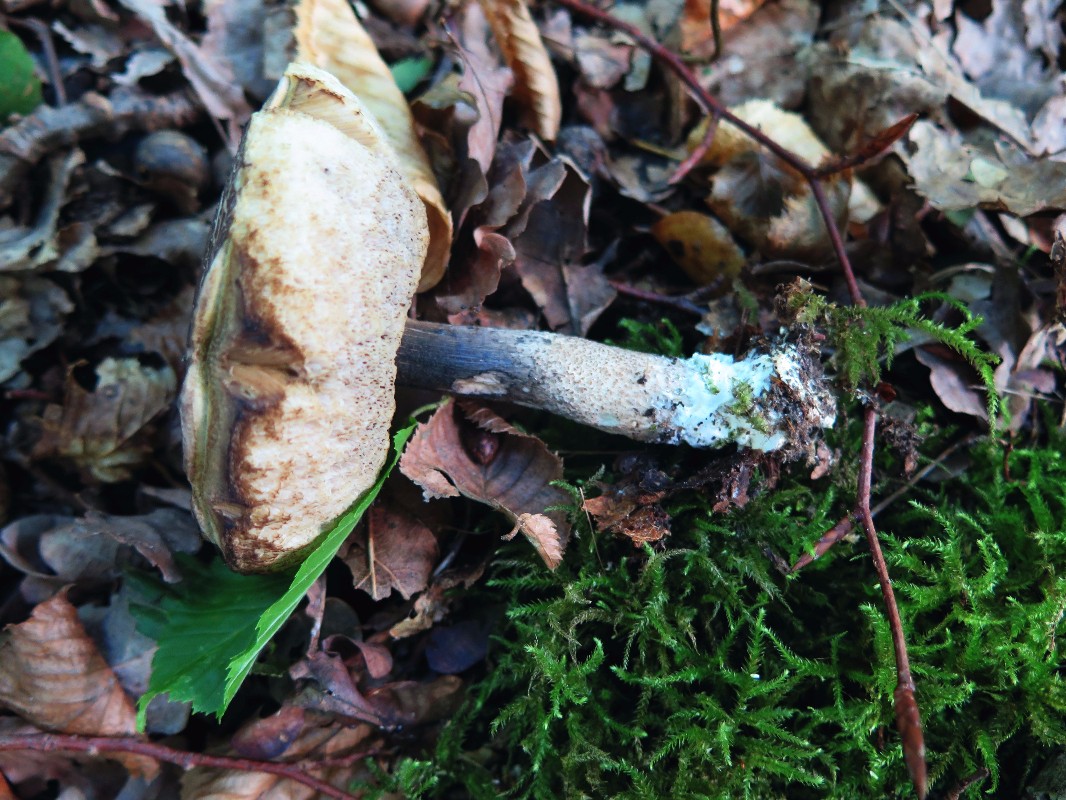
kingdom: Fungi
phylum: Basidiomycota
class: Agaricomycetes
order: Boletales
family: Boletaceae
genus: Leccinellum
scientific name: Leccinellum pseudoscabrum
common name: avnbøg-skælrørhat
